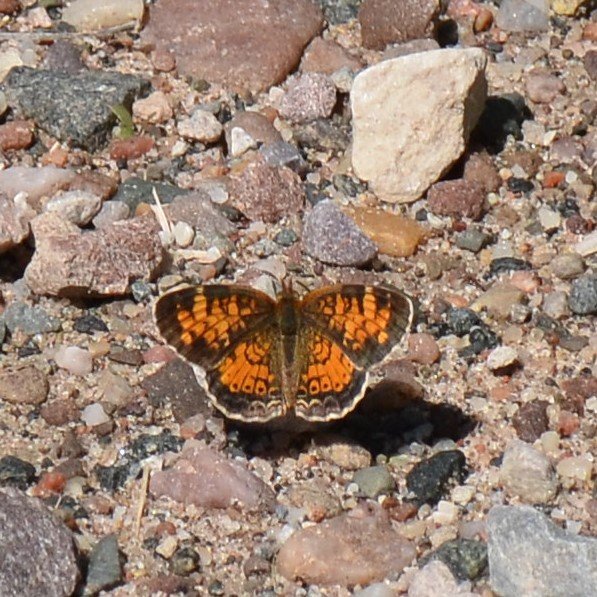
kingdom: Animalia
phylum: Arthropoda
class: Insecta
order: Lepidoptera
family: Nymphalidae
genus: Phyciodes
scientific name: Phyciodes tharos
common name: Northern Crescent
